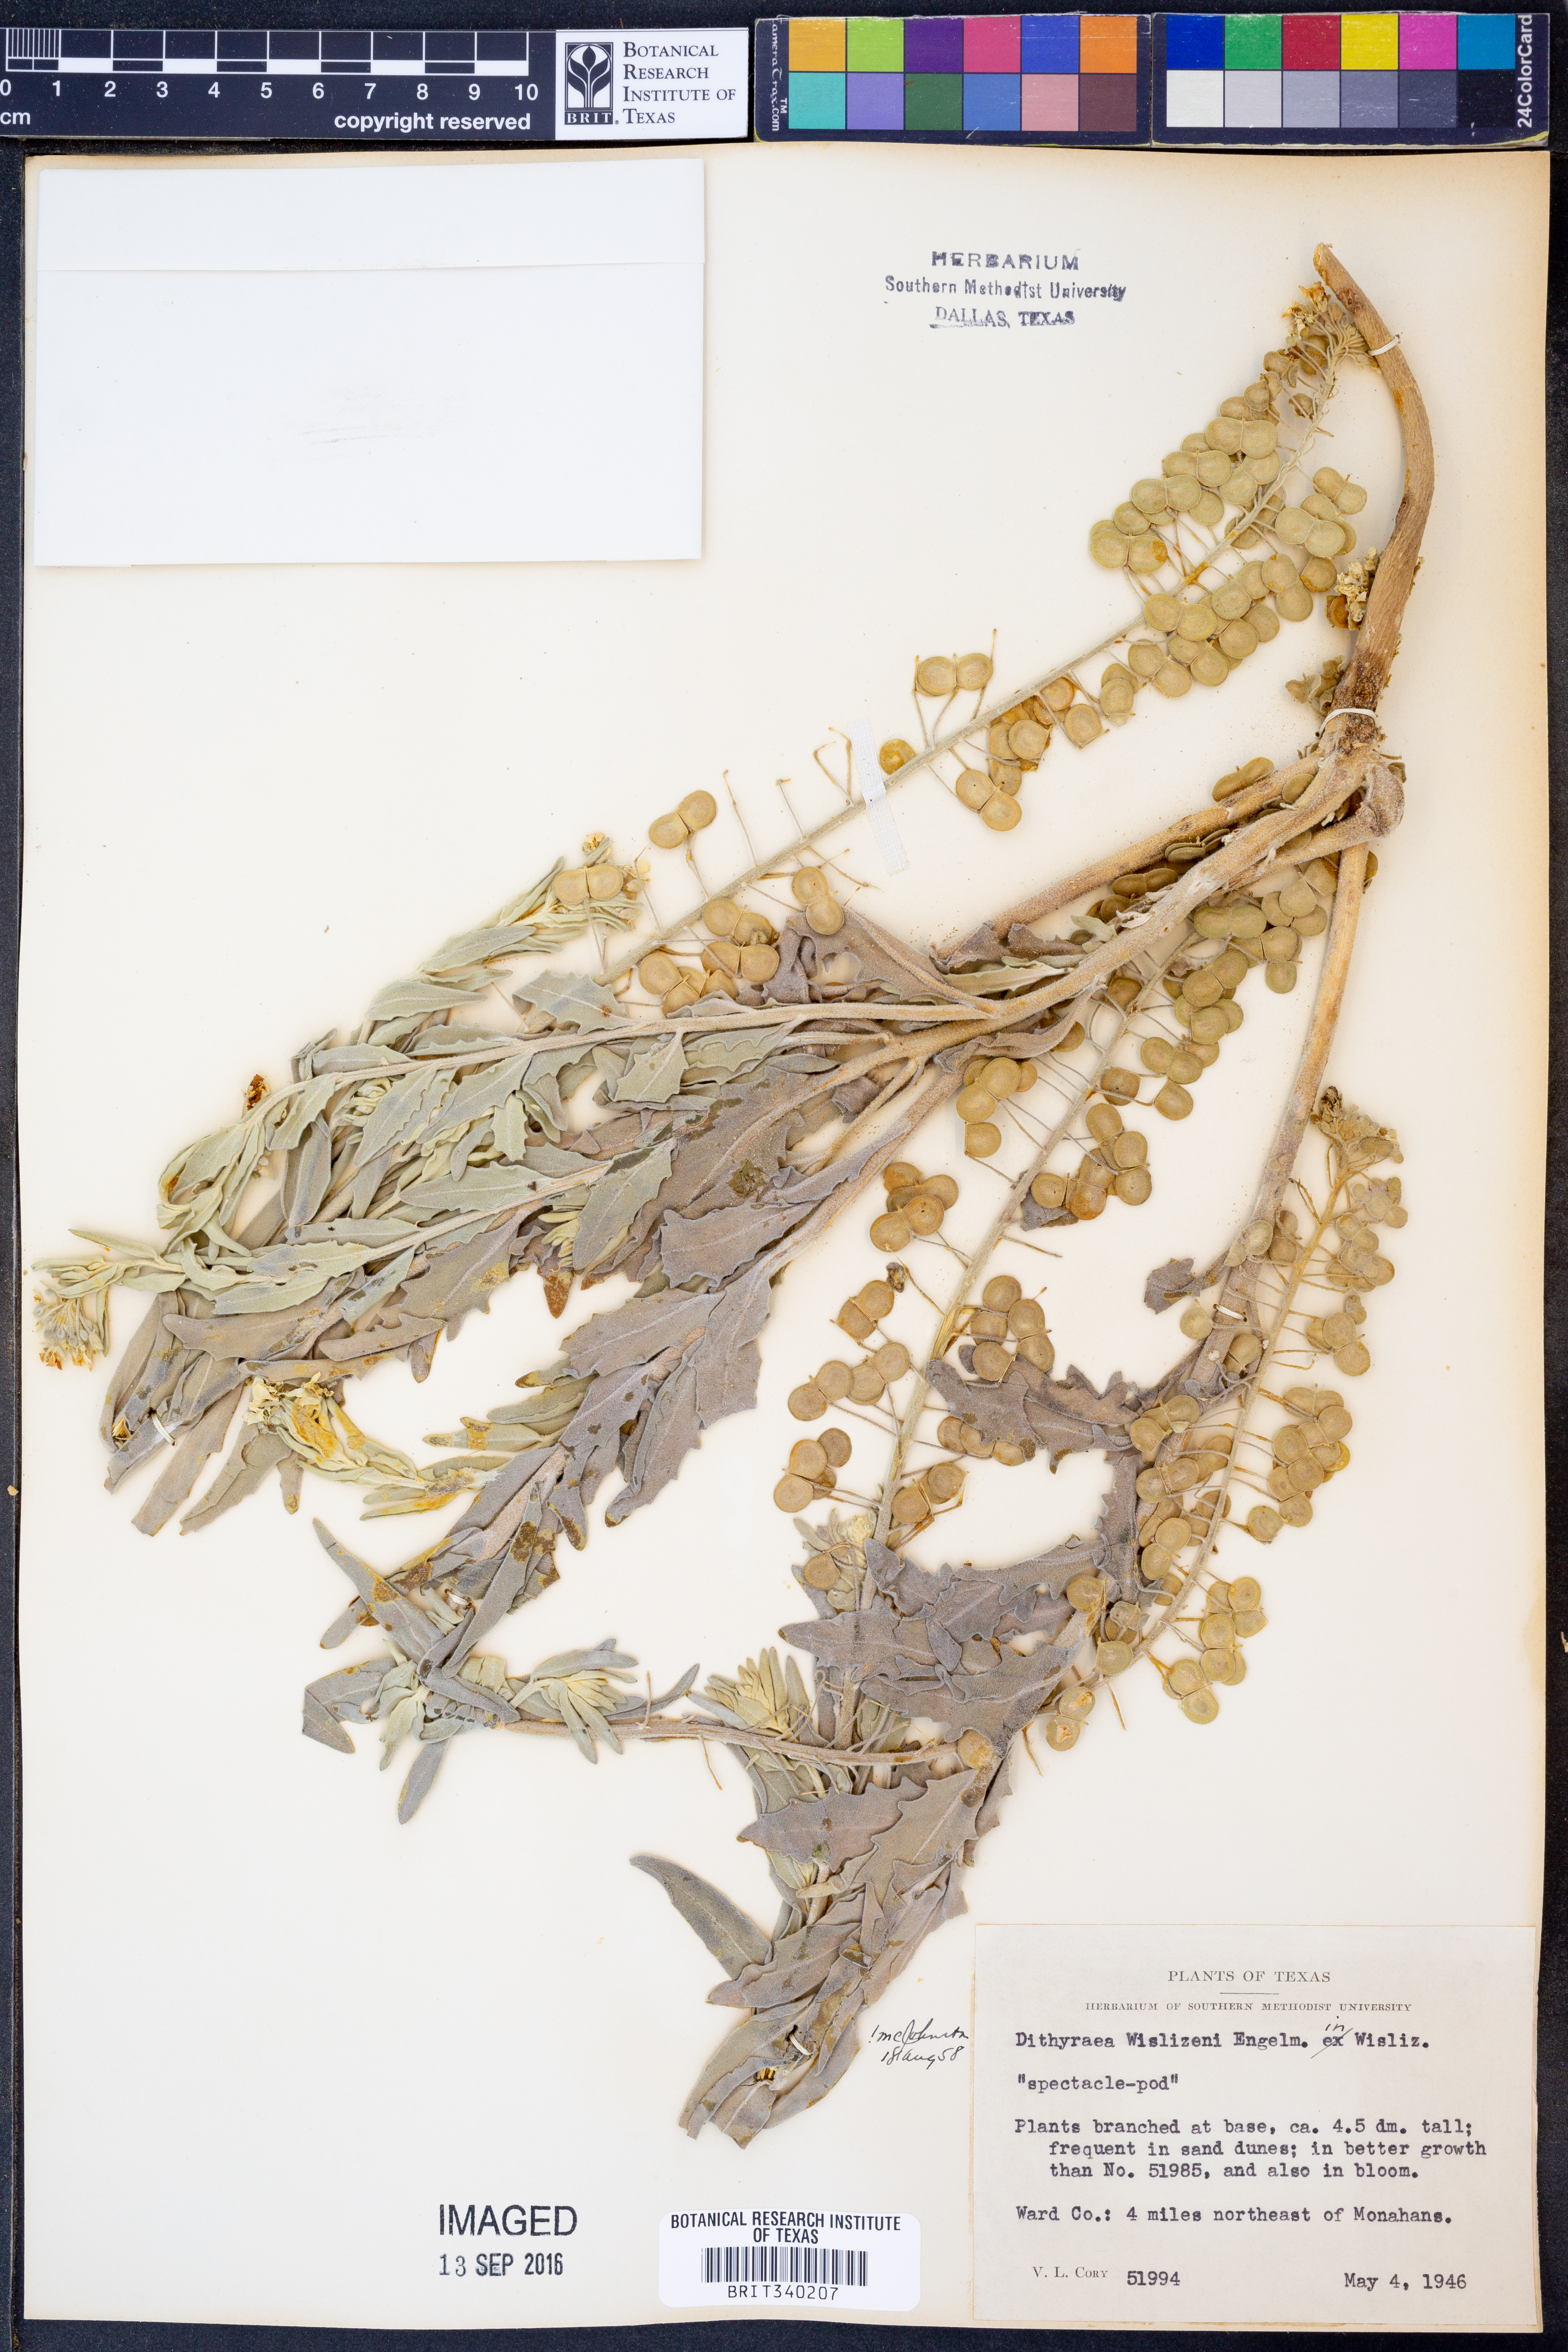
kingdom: Plantae
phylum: Tracheophyta
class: Magnoliopsida
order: Brassicales
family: Brassicaceae
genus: Dimorphocarpa
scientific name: Dimorphocarpa wislizenii
